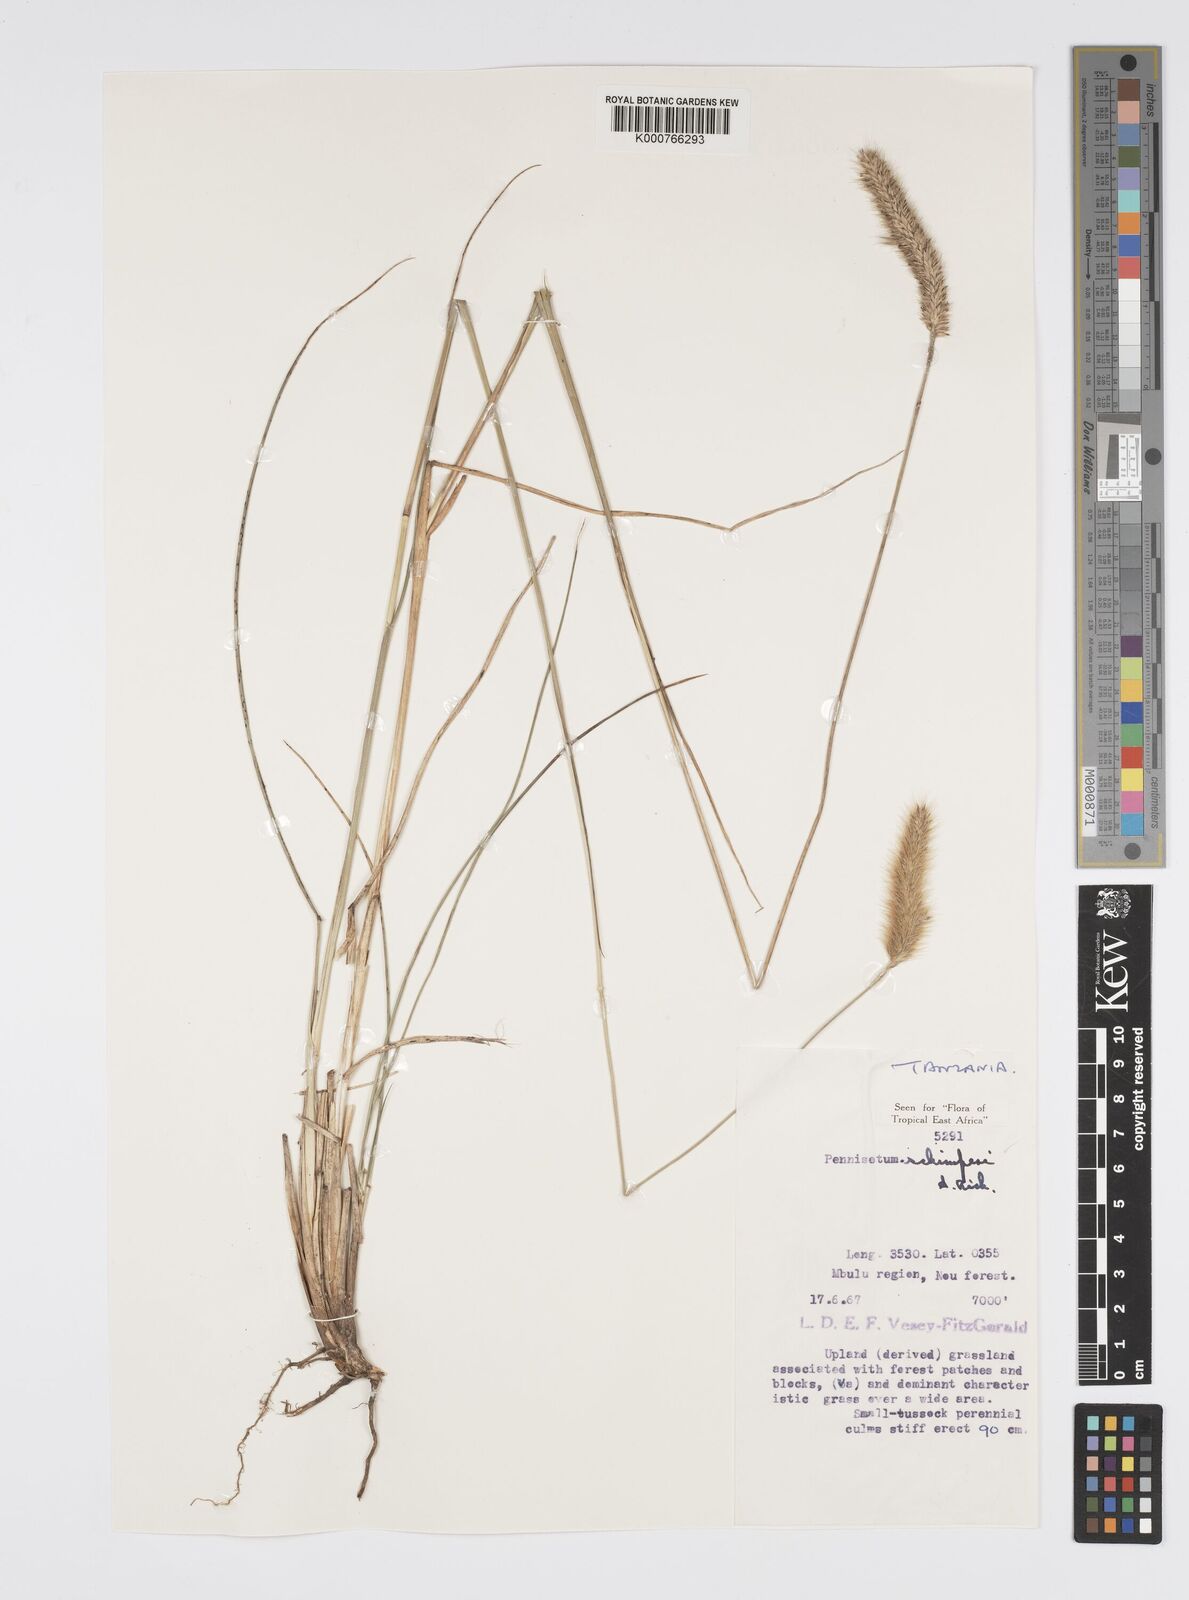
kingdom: Plantae
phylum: Tracheophyta
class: Liliopsida
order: Poales
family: Poaceae
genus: Cenchrus
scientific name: Cenchrus sphacelatus
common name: Bulgras
